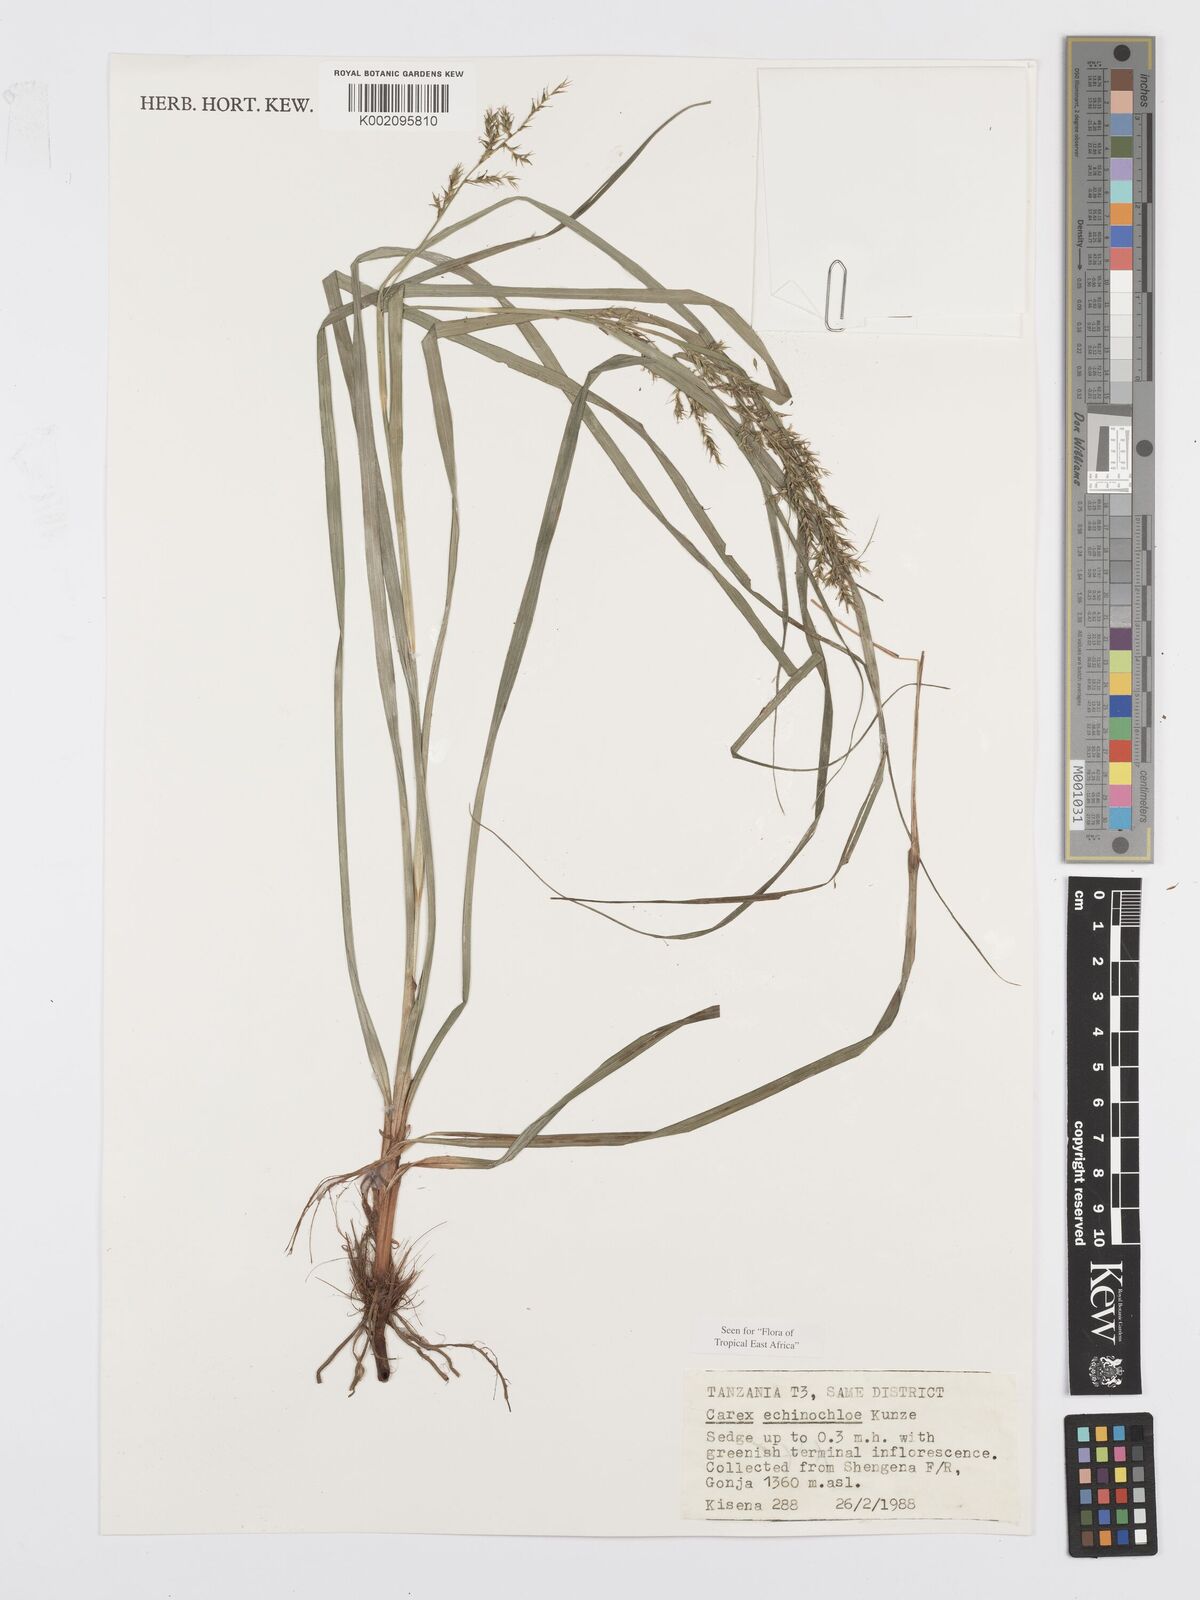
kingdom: Plantae
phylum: Tracheophyta
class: Liliopsida
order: Poales
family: Cyperaceae
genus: Carex
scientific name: Carex echinochloe
